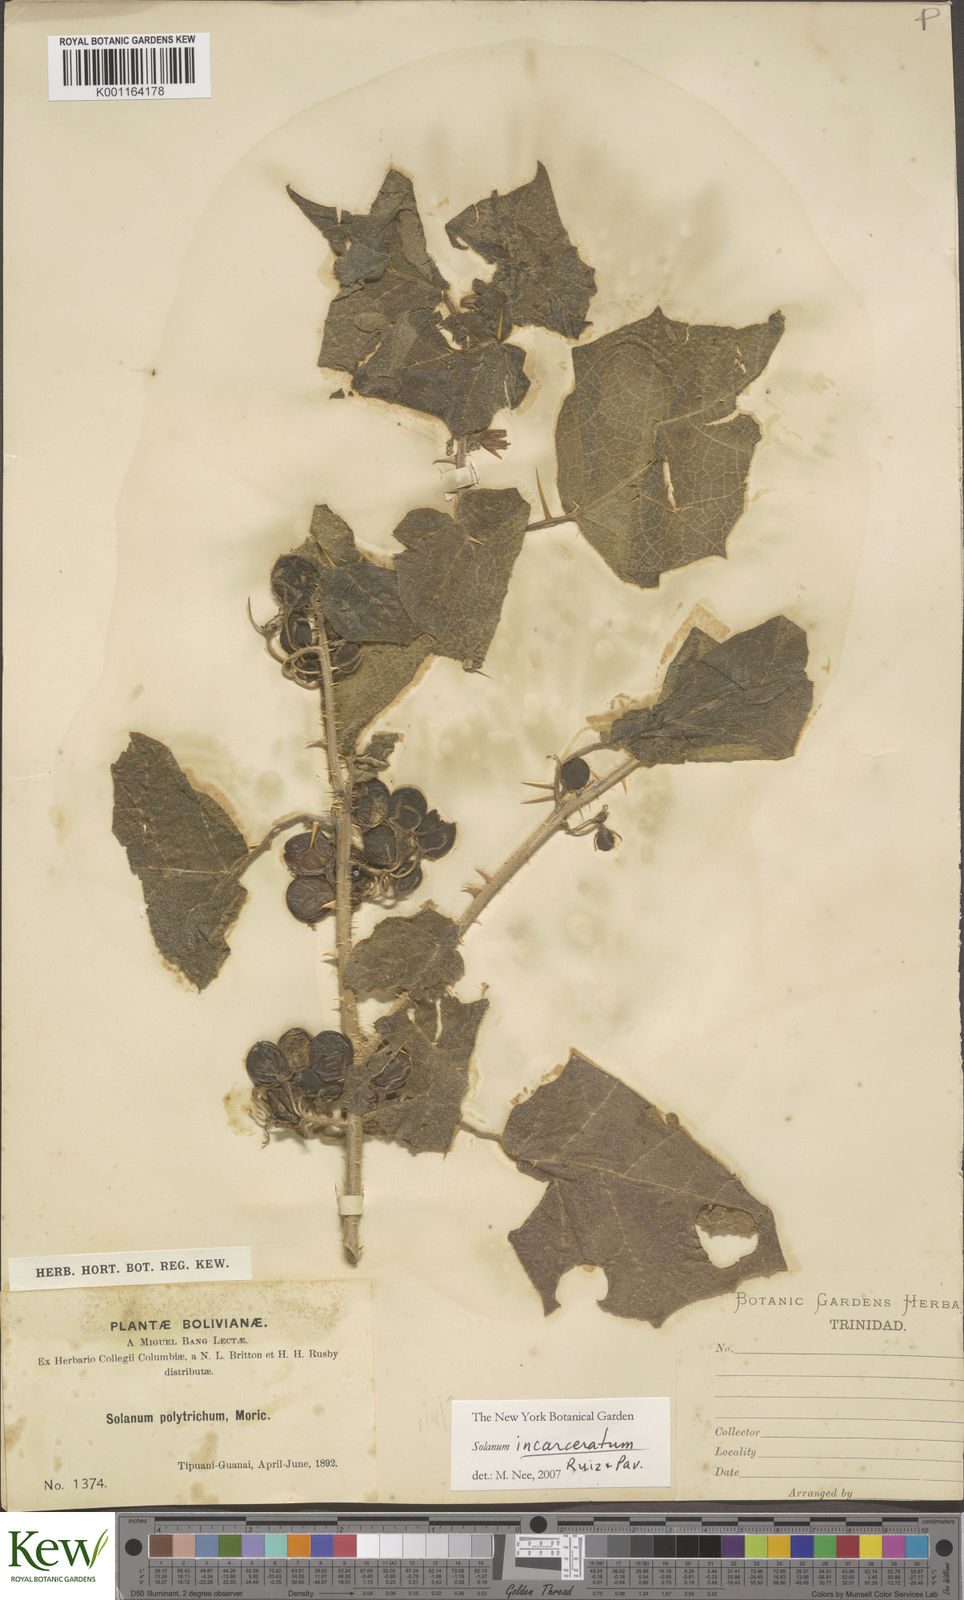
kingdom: Plantae
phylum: Tracheophyta
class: Magnoliopsida
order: Solanales
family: Solanaceae
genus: Solanum
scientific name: Solanum incarceratum
